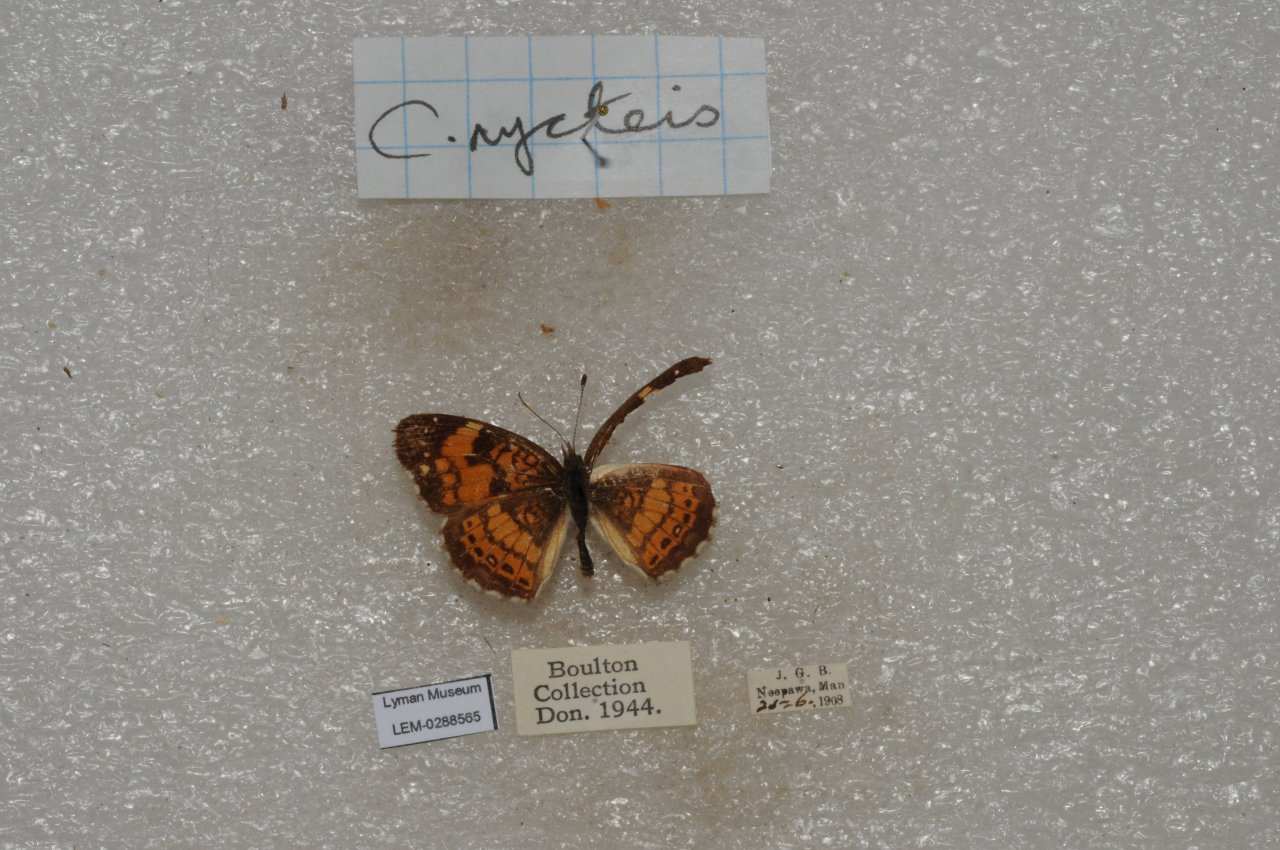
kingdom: Animalia
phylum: Arthropoda
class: Insecta
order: Lepidoptera
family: Nymphalidae
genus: Chlosyne
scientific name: Chlosyne nycteis
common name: Silvery Checkerspot
